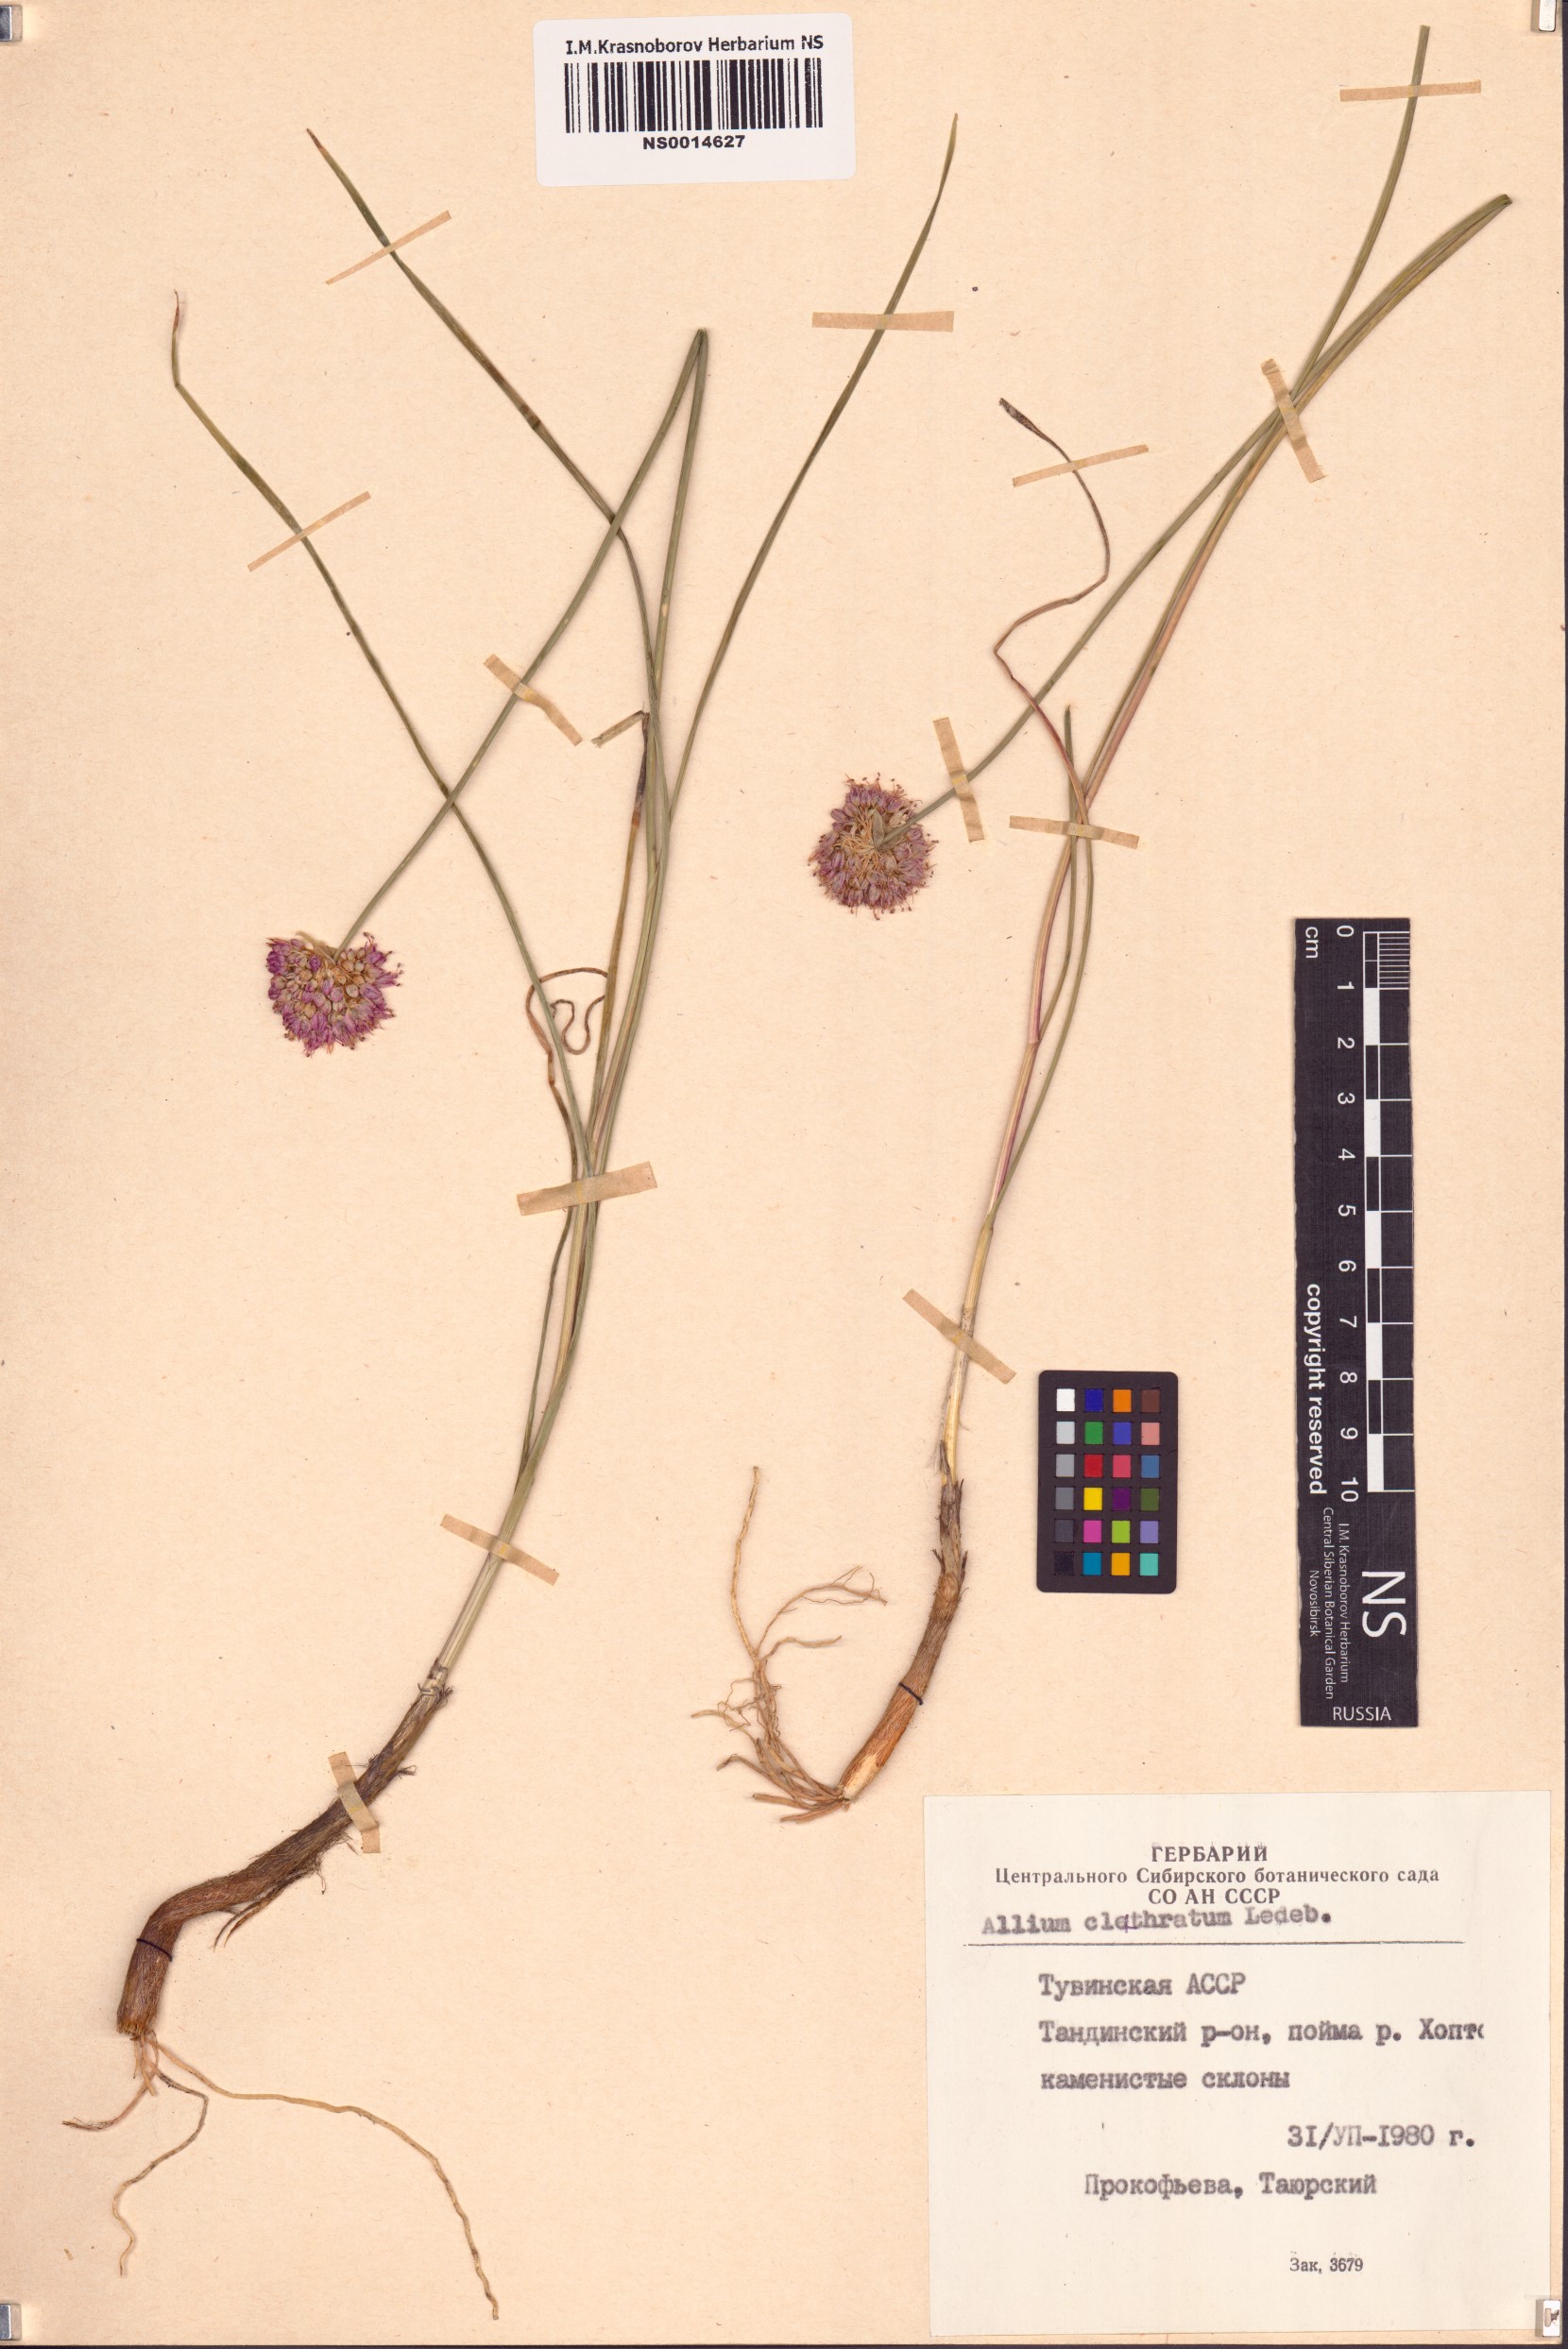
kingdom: Plantae
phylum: Tracheophyta
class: Liliopsida
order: Asparagales
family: Amaryllidaceae
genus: Allium
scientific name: Allium clathratum
